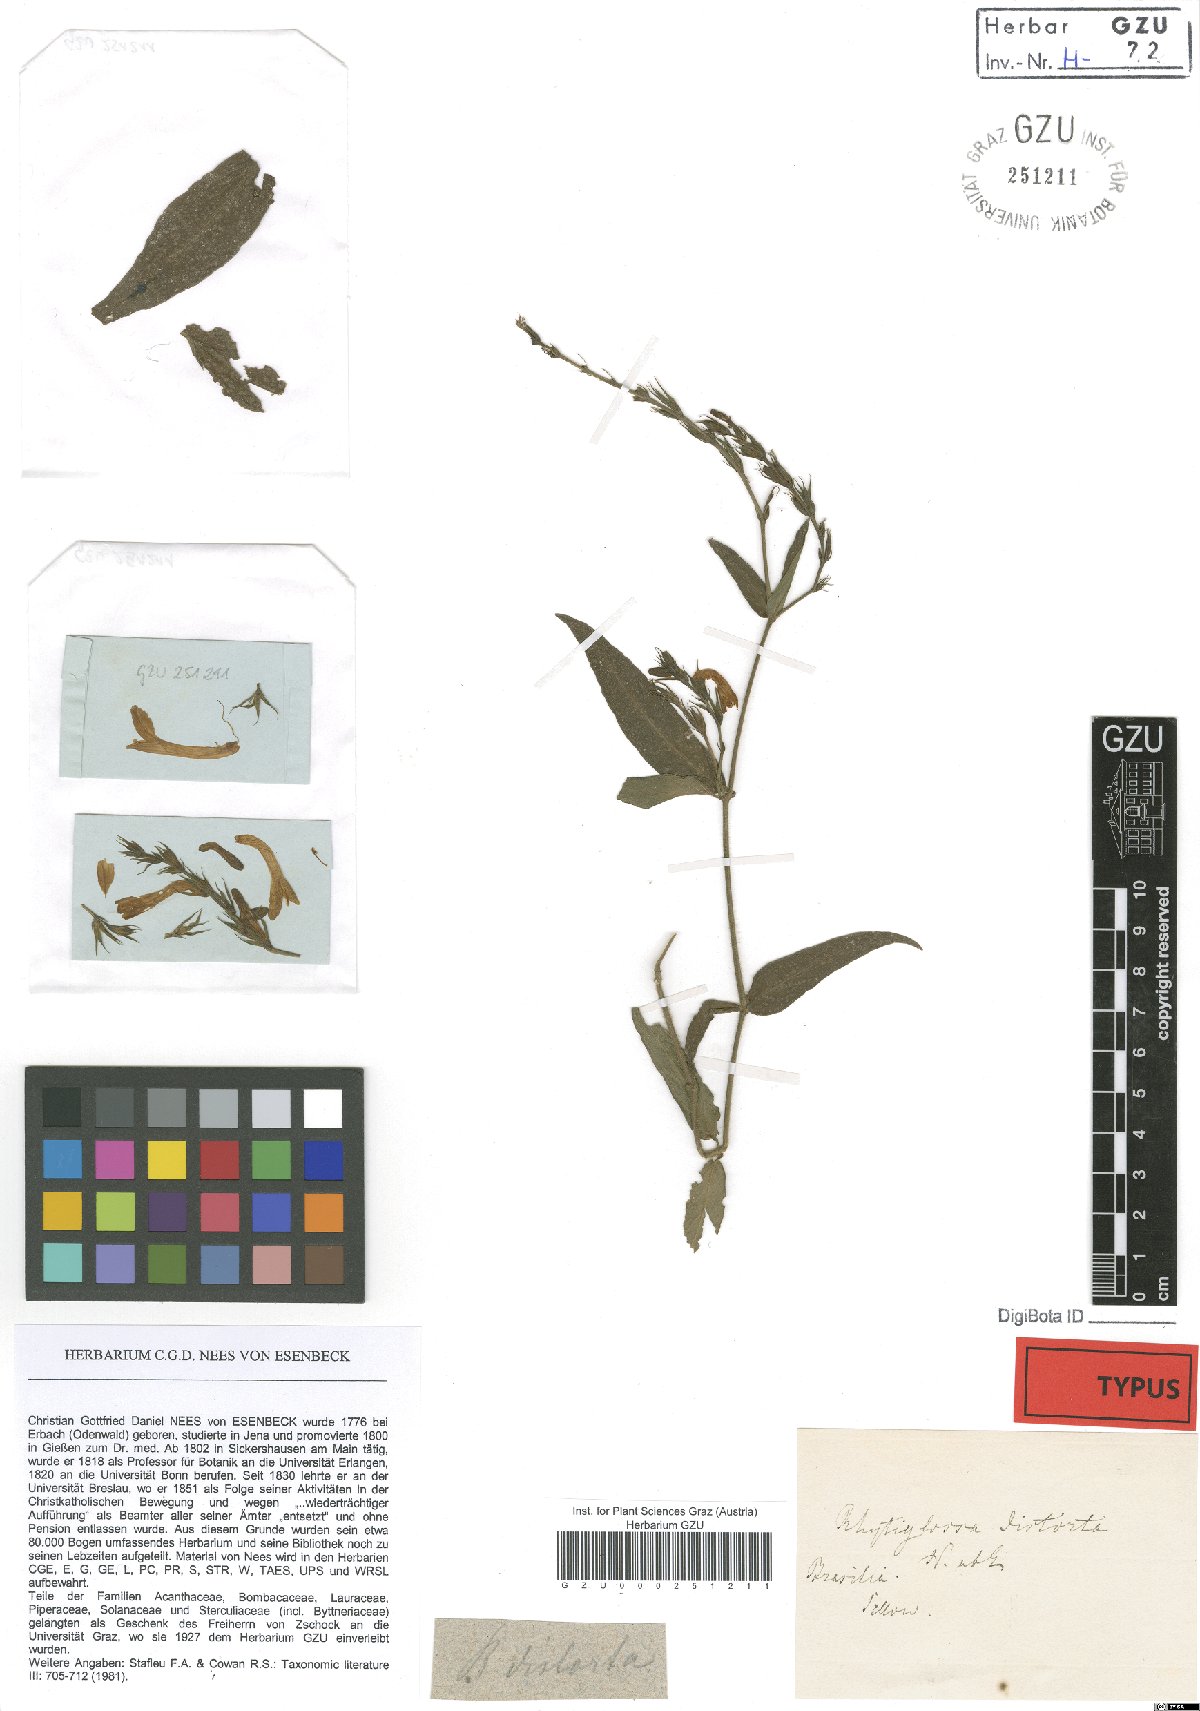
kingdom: Plantae
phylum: Tracheophyta
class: Magnoliopsida
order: Lamiales
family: Acanthaceae
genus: Dianthera
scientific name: Dianthera dasyclados
